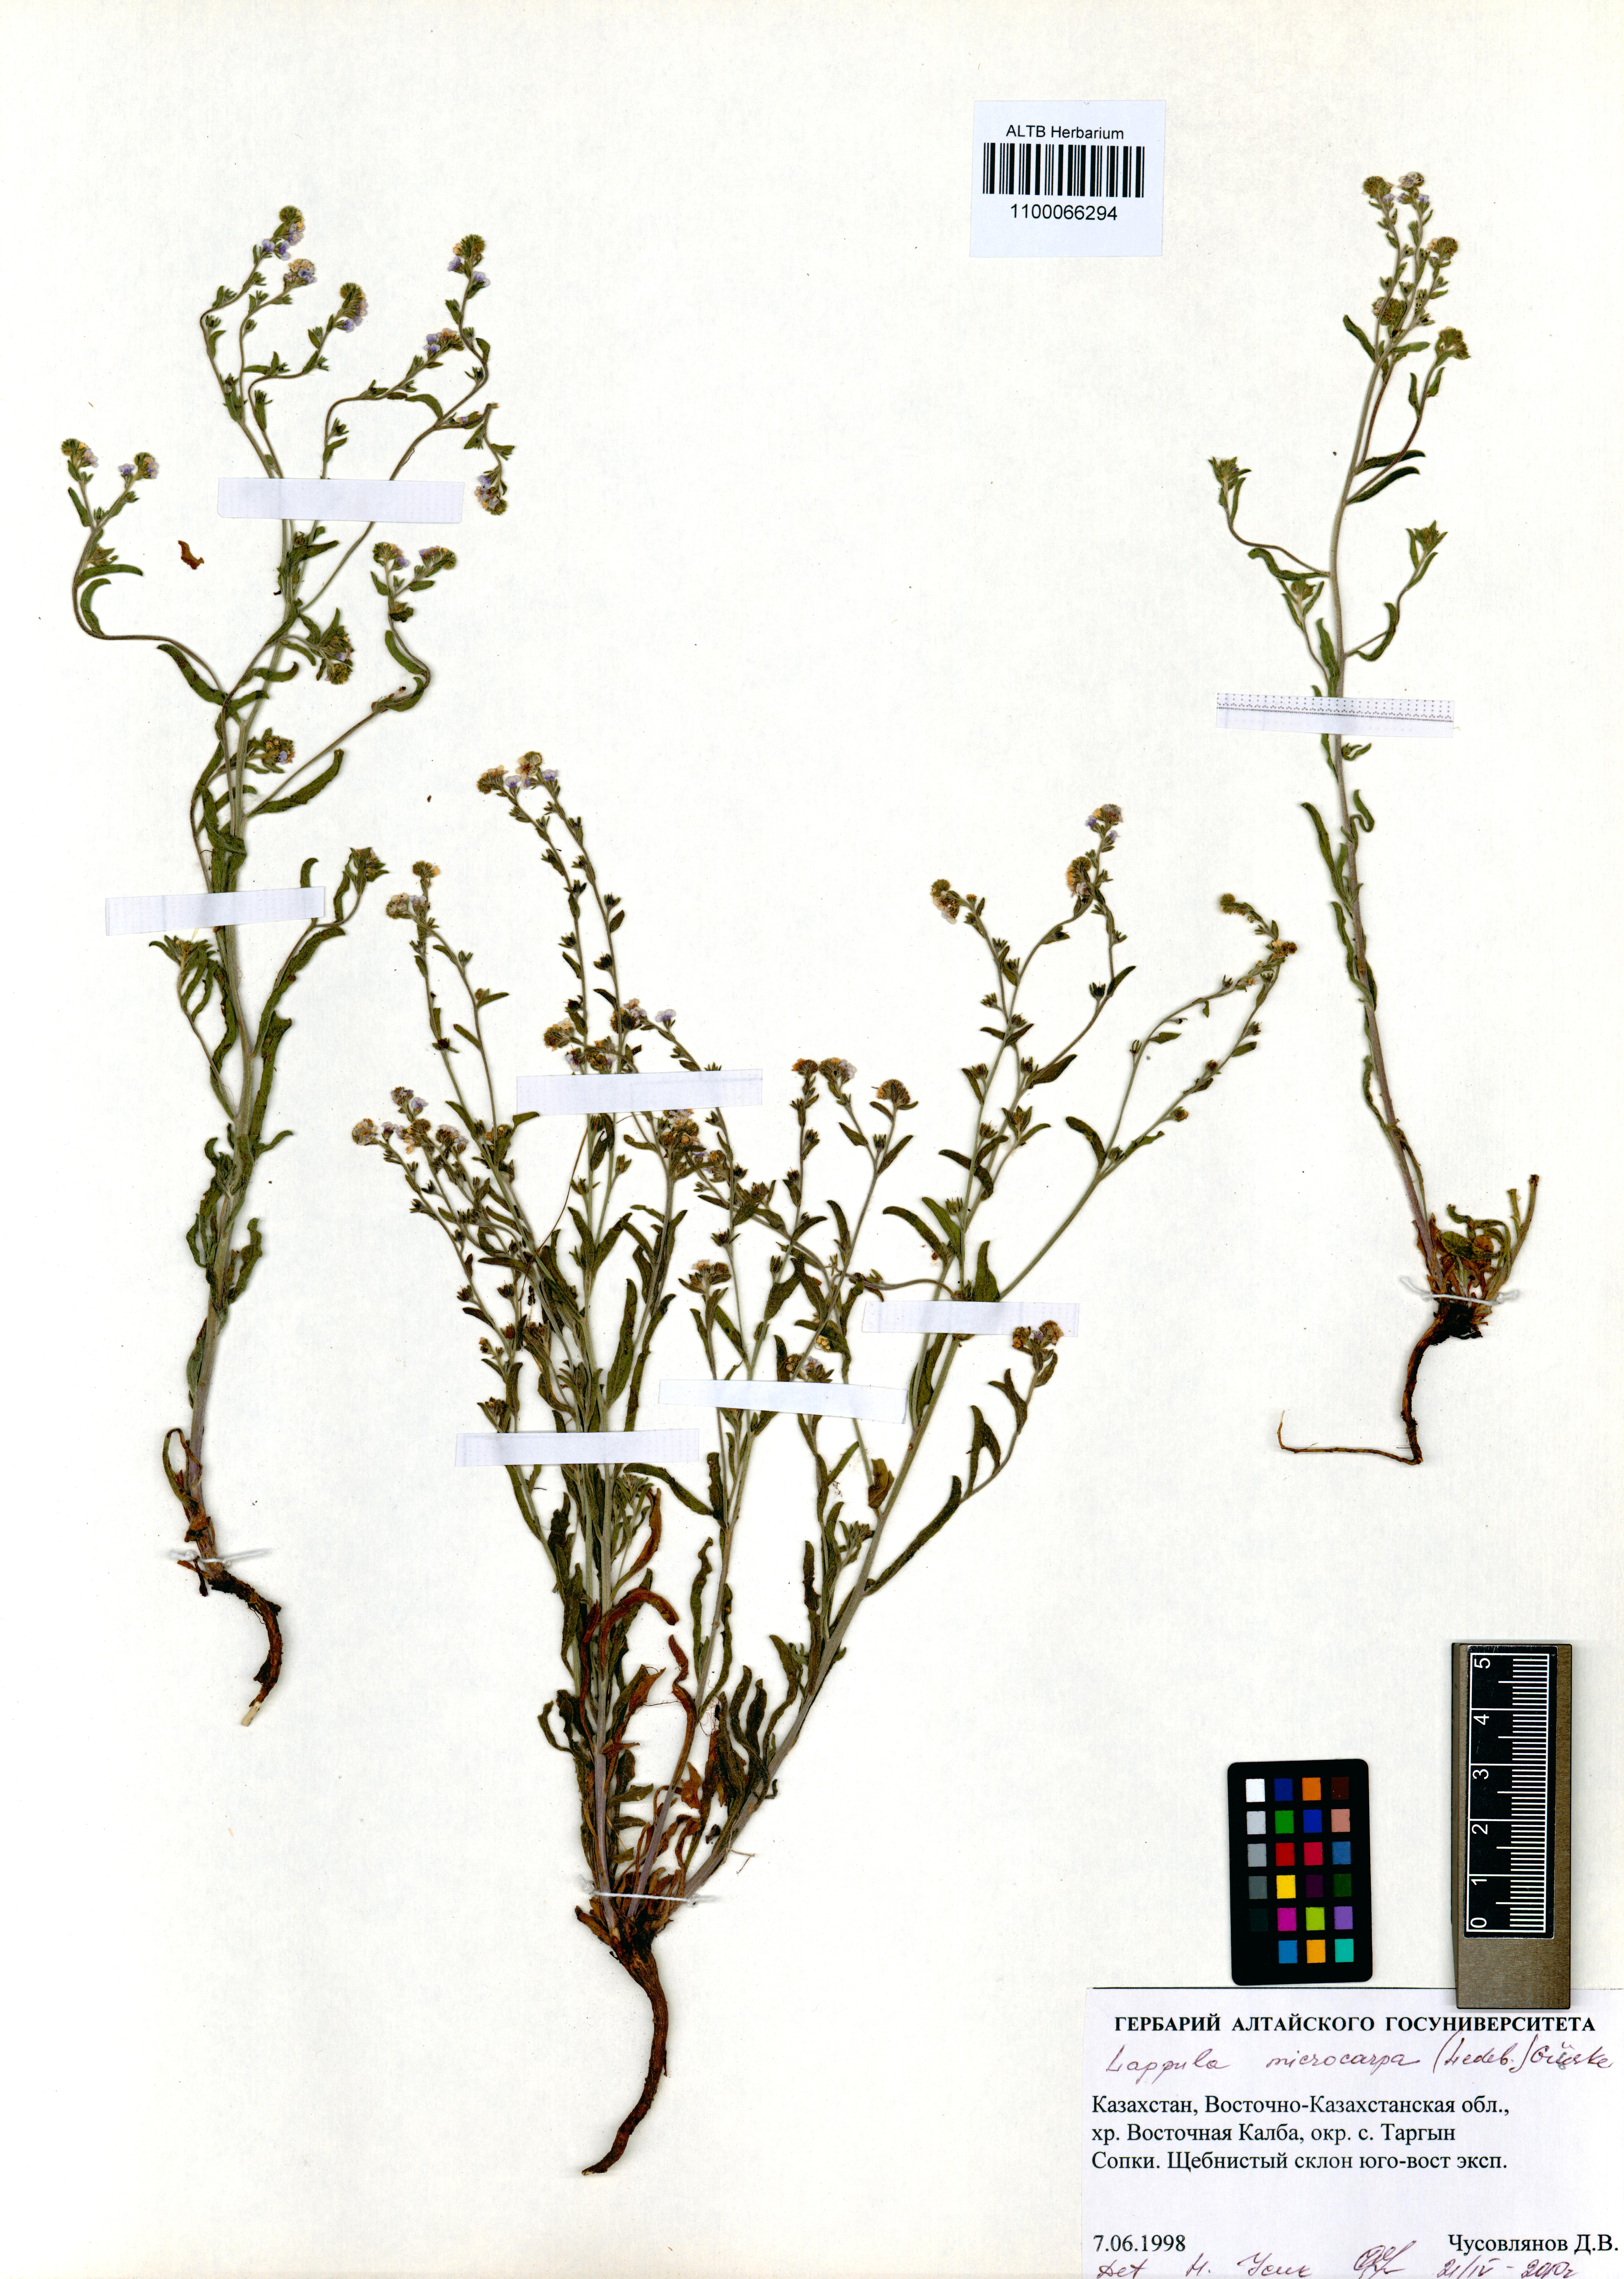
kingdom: Plantae
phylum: Tracheophyta
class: Magnoliopsida
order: Boraginales
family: Boraginaceae
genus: Lappula
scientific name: Lappula microcarpa
